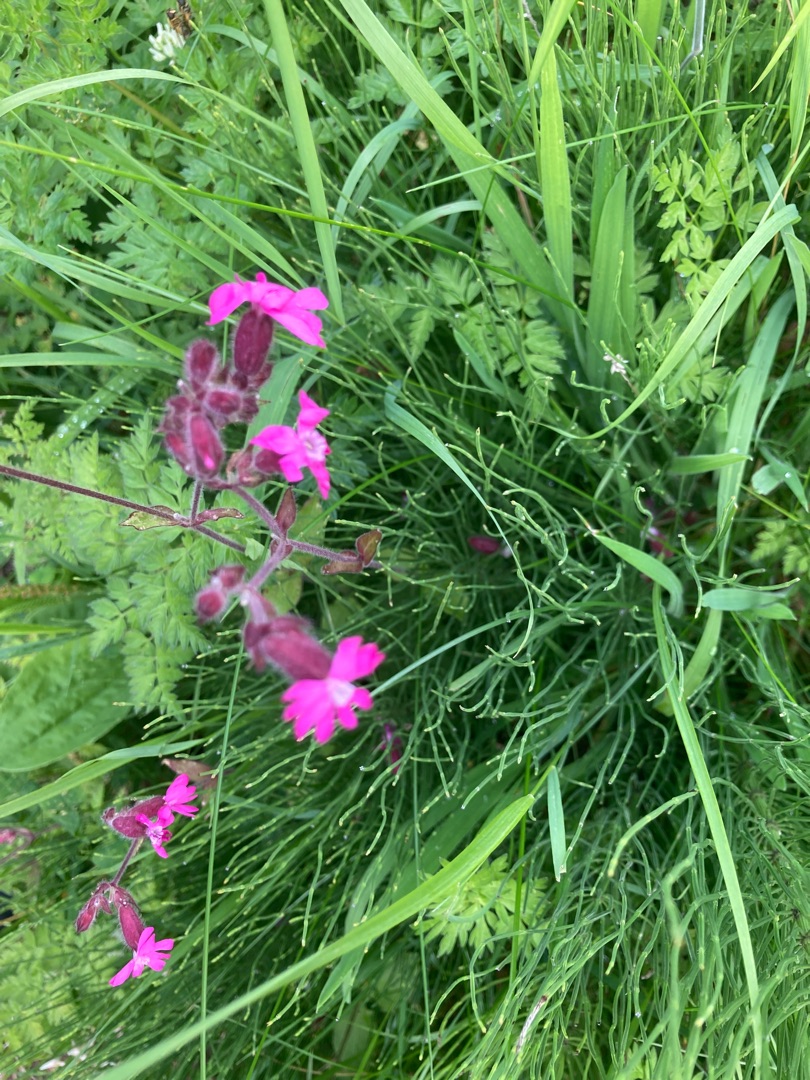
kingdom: Plantae
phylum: Tracheophyta
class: Magnoliopsida
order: Caryophyllales
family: Caryophyllaceae
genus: Silene
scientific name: Silene dioica
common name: Dagpragtstjerne
